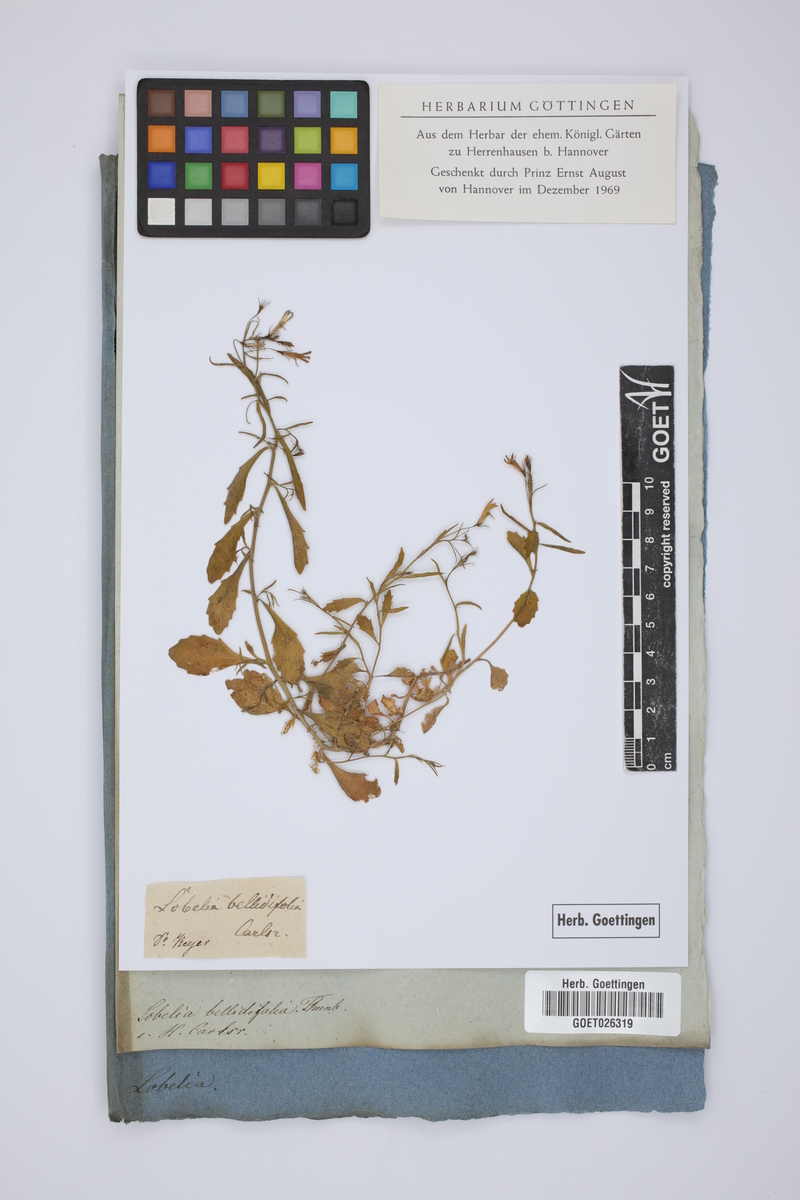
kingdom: Plantae
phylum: Tracheophyta
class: Magnoliopsida
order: Asterales
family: Campanulaceae
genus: Lobelia
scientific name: Lobelia erinus
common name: Edging lobelia
